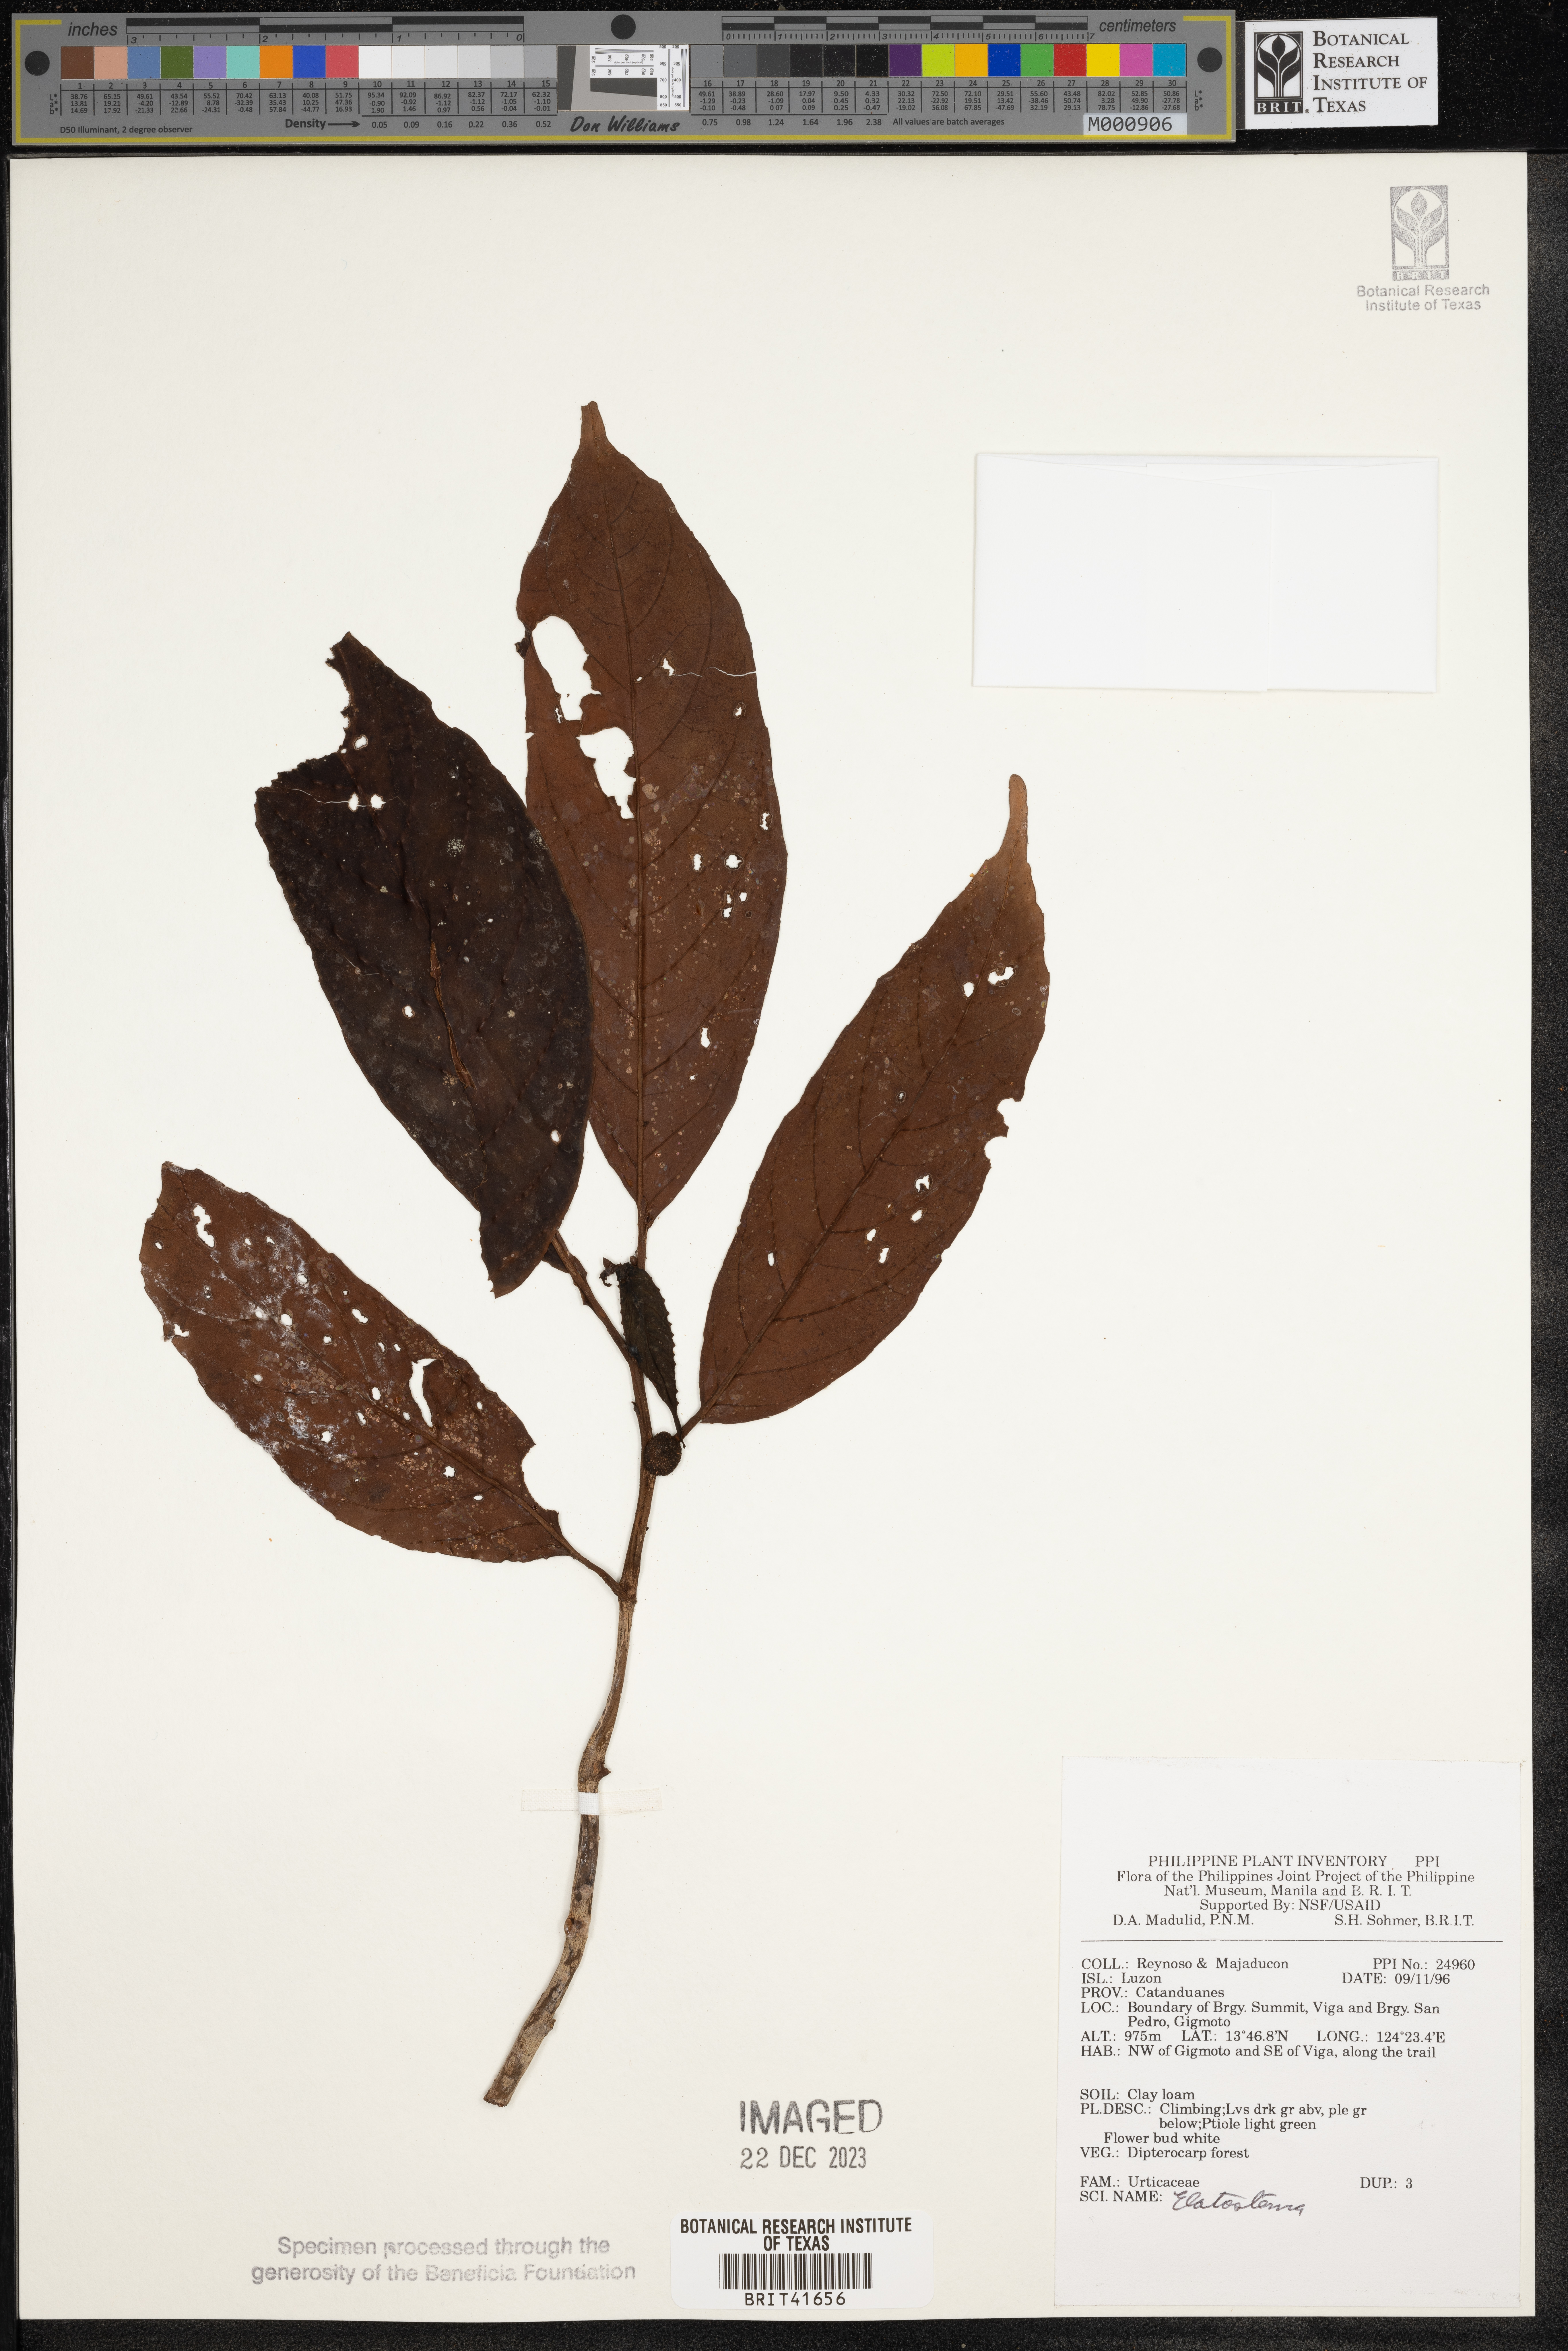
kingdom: Plantae
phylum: Tracheophyta
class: Magnoliopsida
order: Rosales
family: Urticaceae
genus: Elatostema
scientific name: Elatostema
